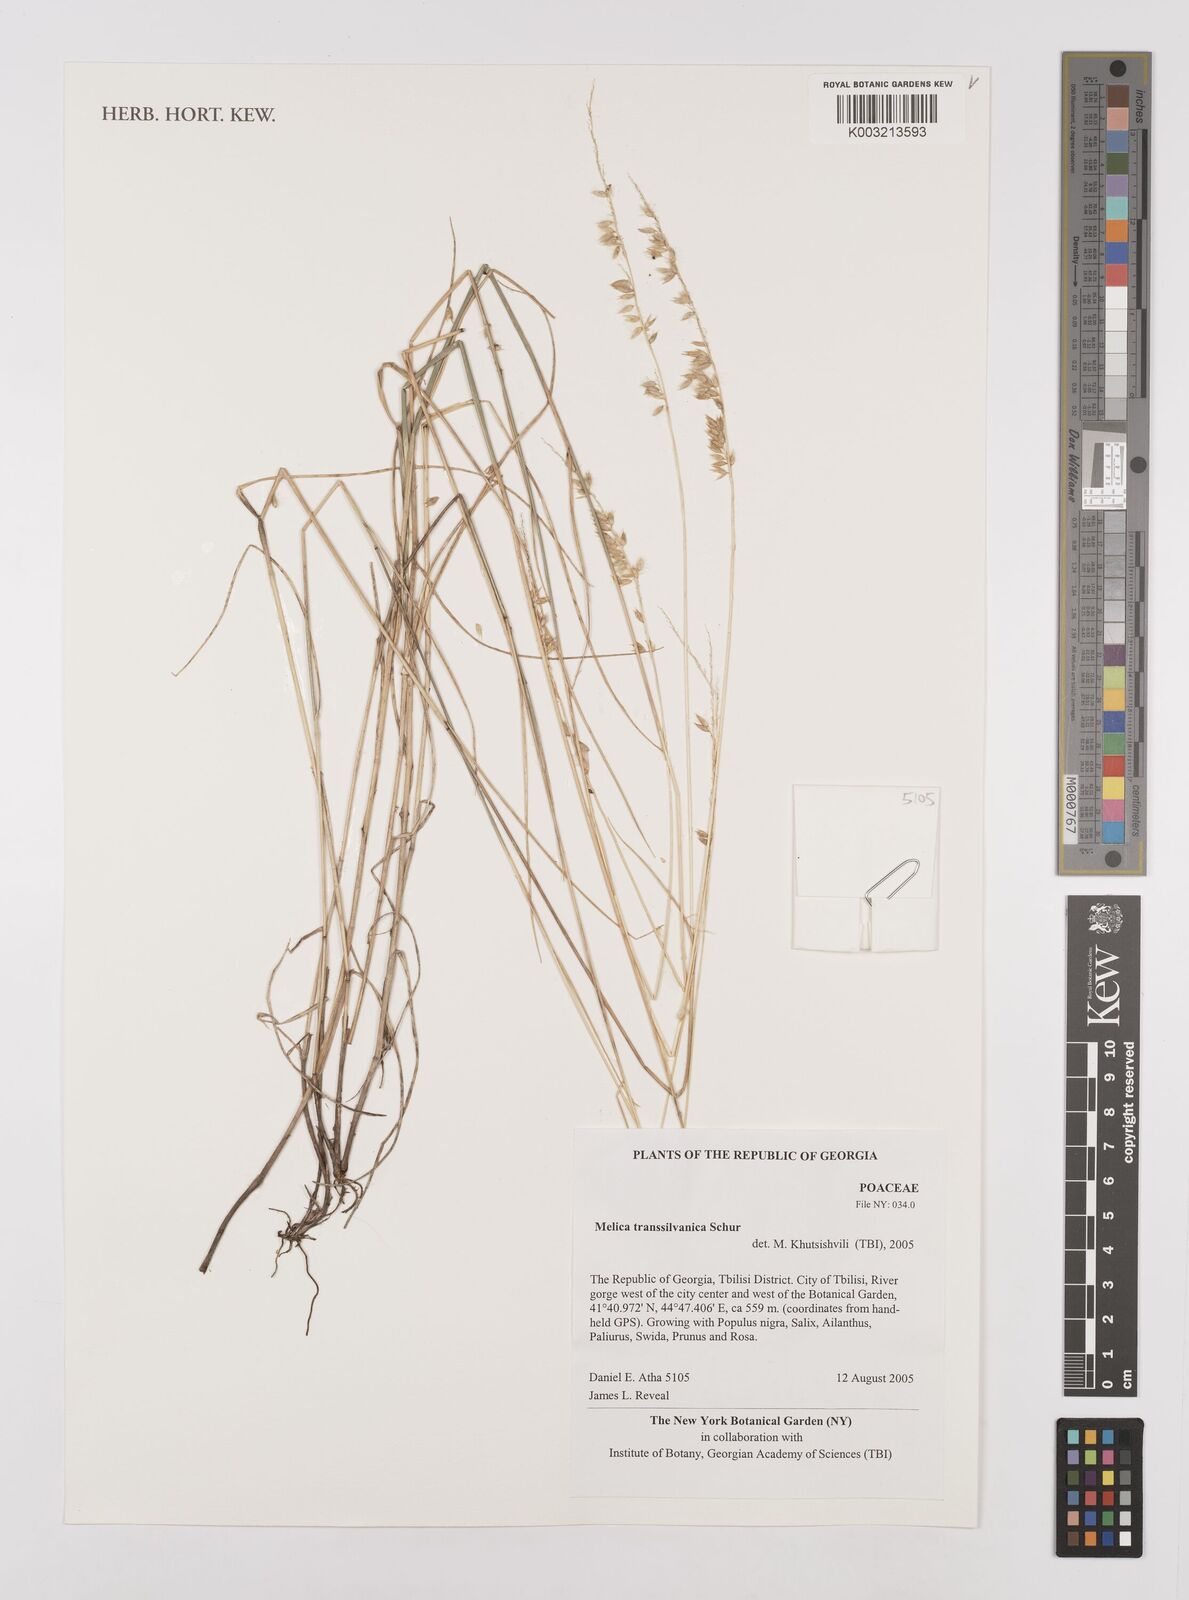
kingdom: Plantae
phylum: Tracheophyta
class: Liliopsida
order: Poales
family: Poaceae
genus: Melica
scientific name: Melica transsilvanica
